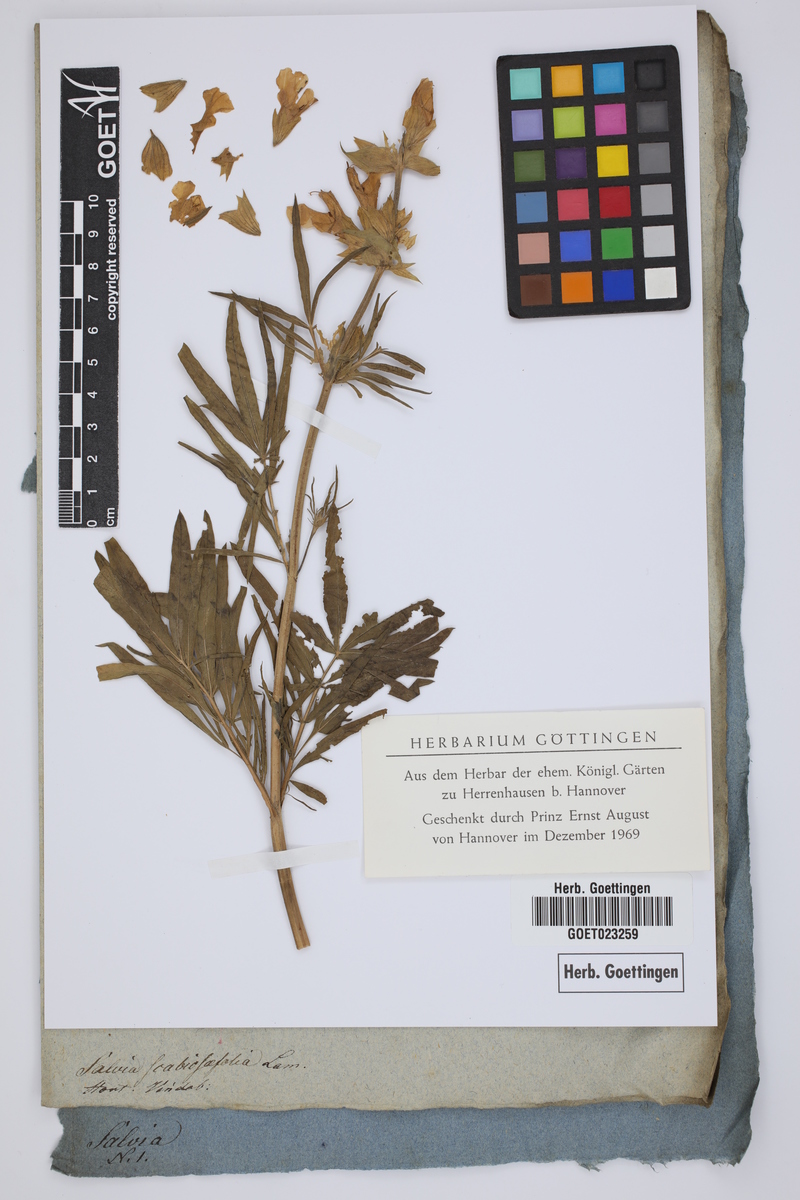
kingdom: Plantae
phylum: Tracheophyta
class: Magnoliopsida
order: Lamiales
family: Lamiaceae
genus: Salvia
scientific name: Salvia scabiosifolia
